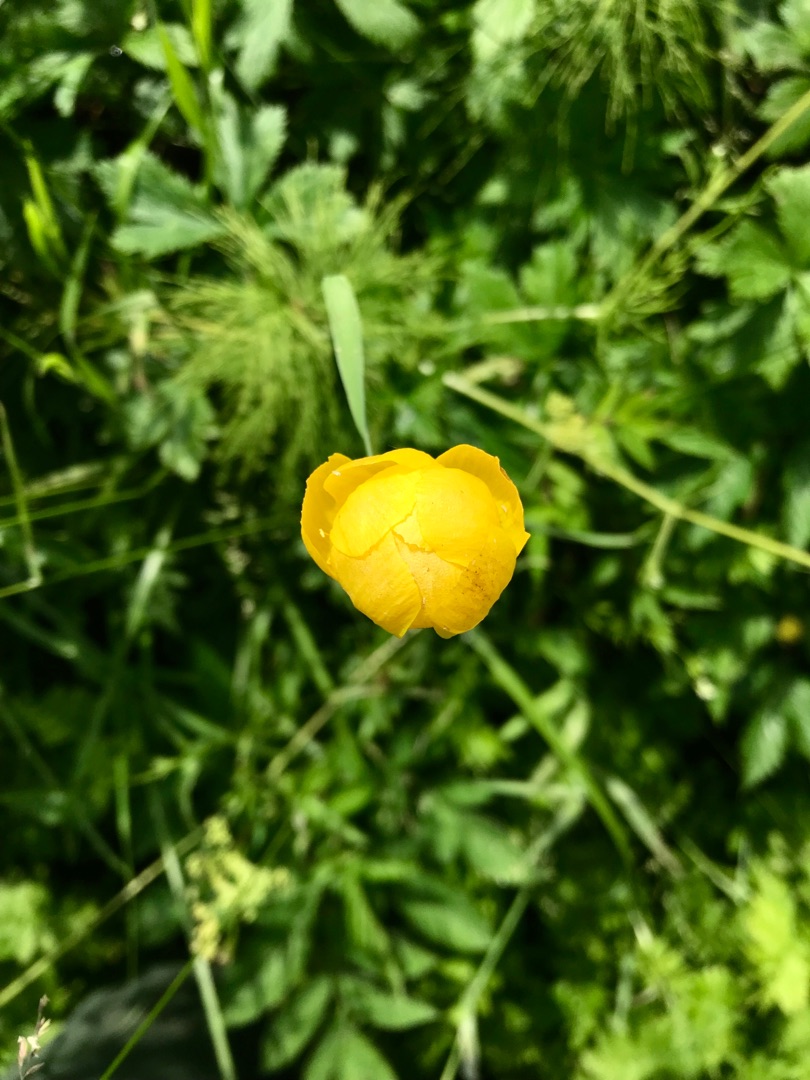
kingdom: Plantae
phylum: Tracheophyta
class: Magnoliopsida
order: Ranunculales
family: Ranunculaceae
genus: Trollius
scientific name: Trollius europaeus
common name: Engblomme
